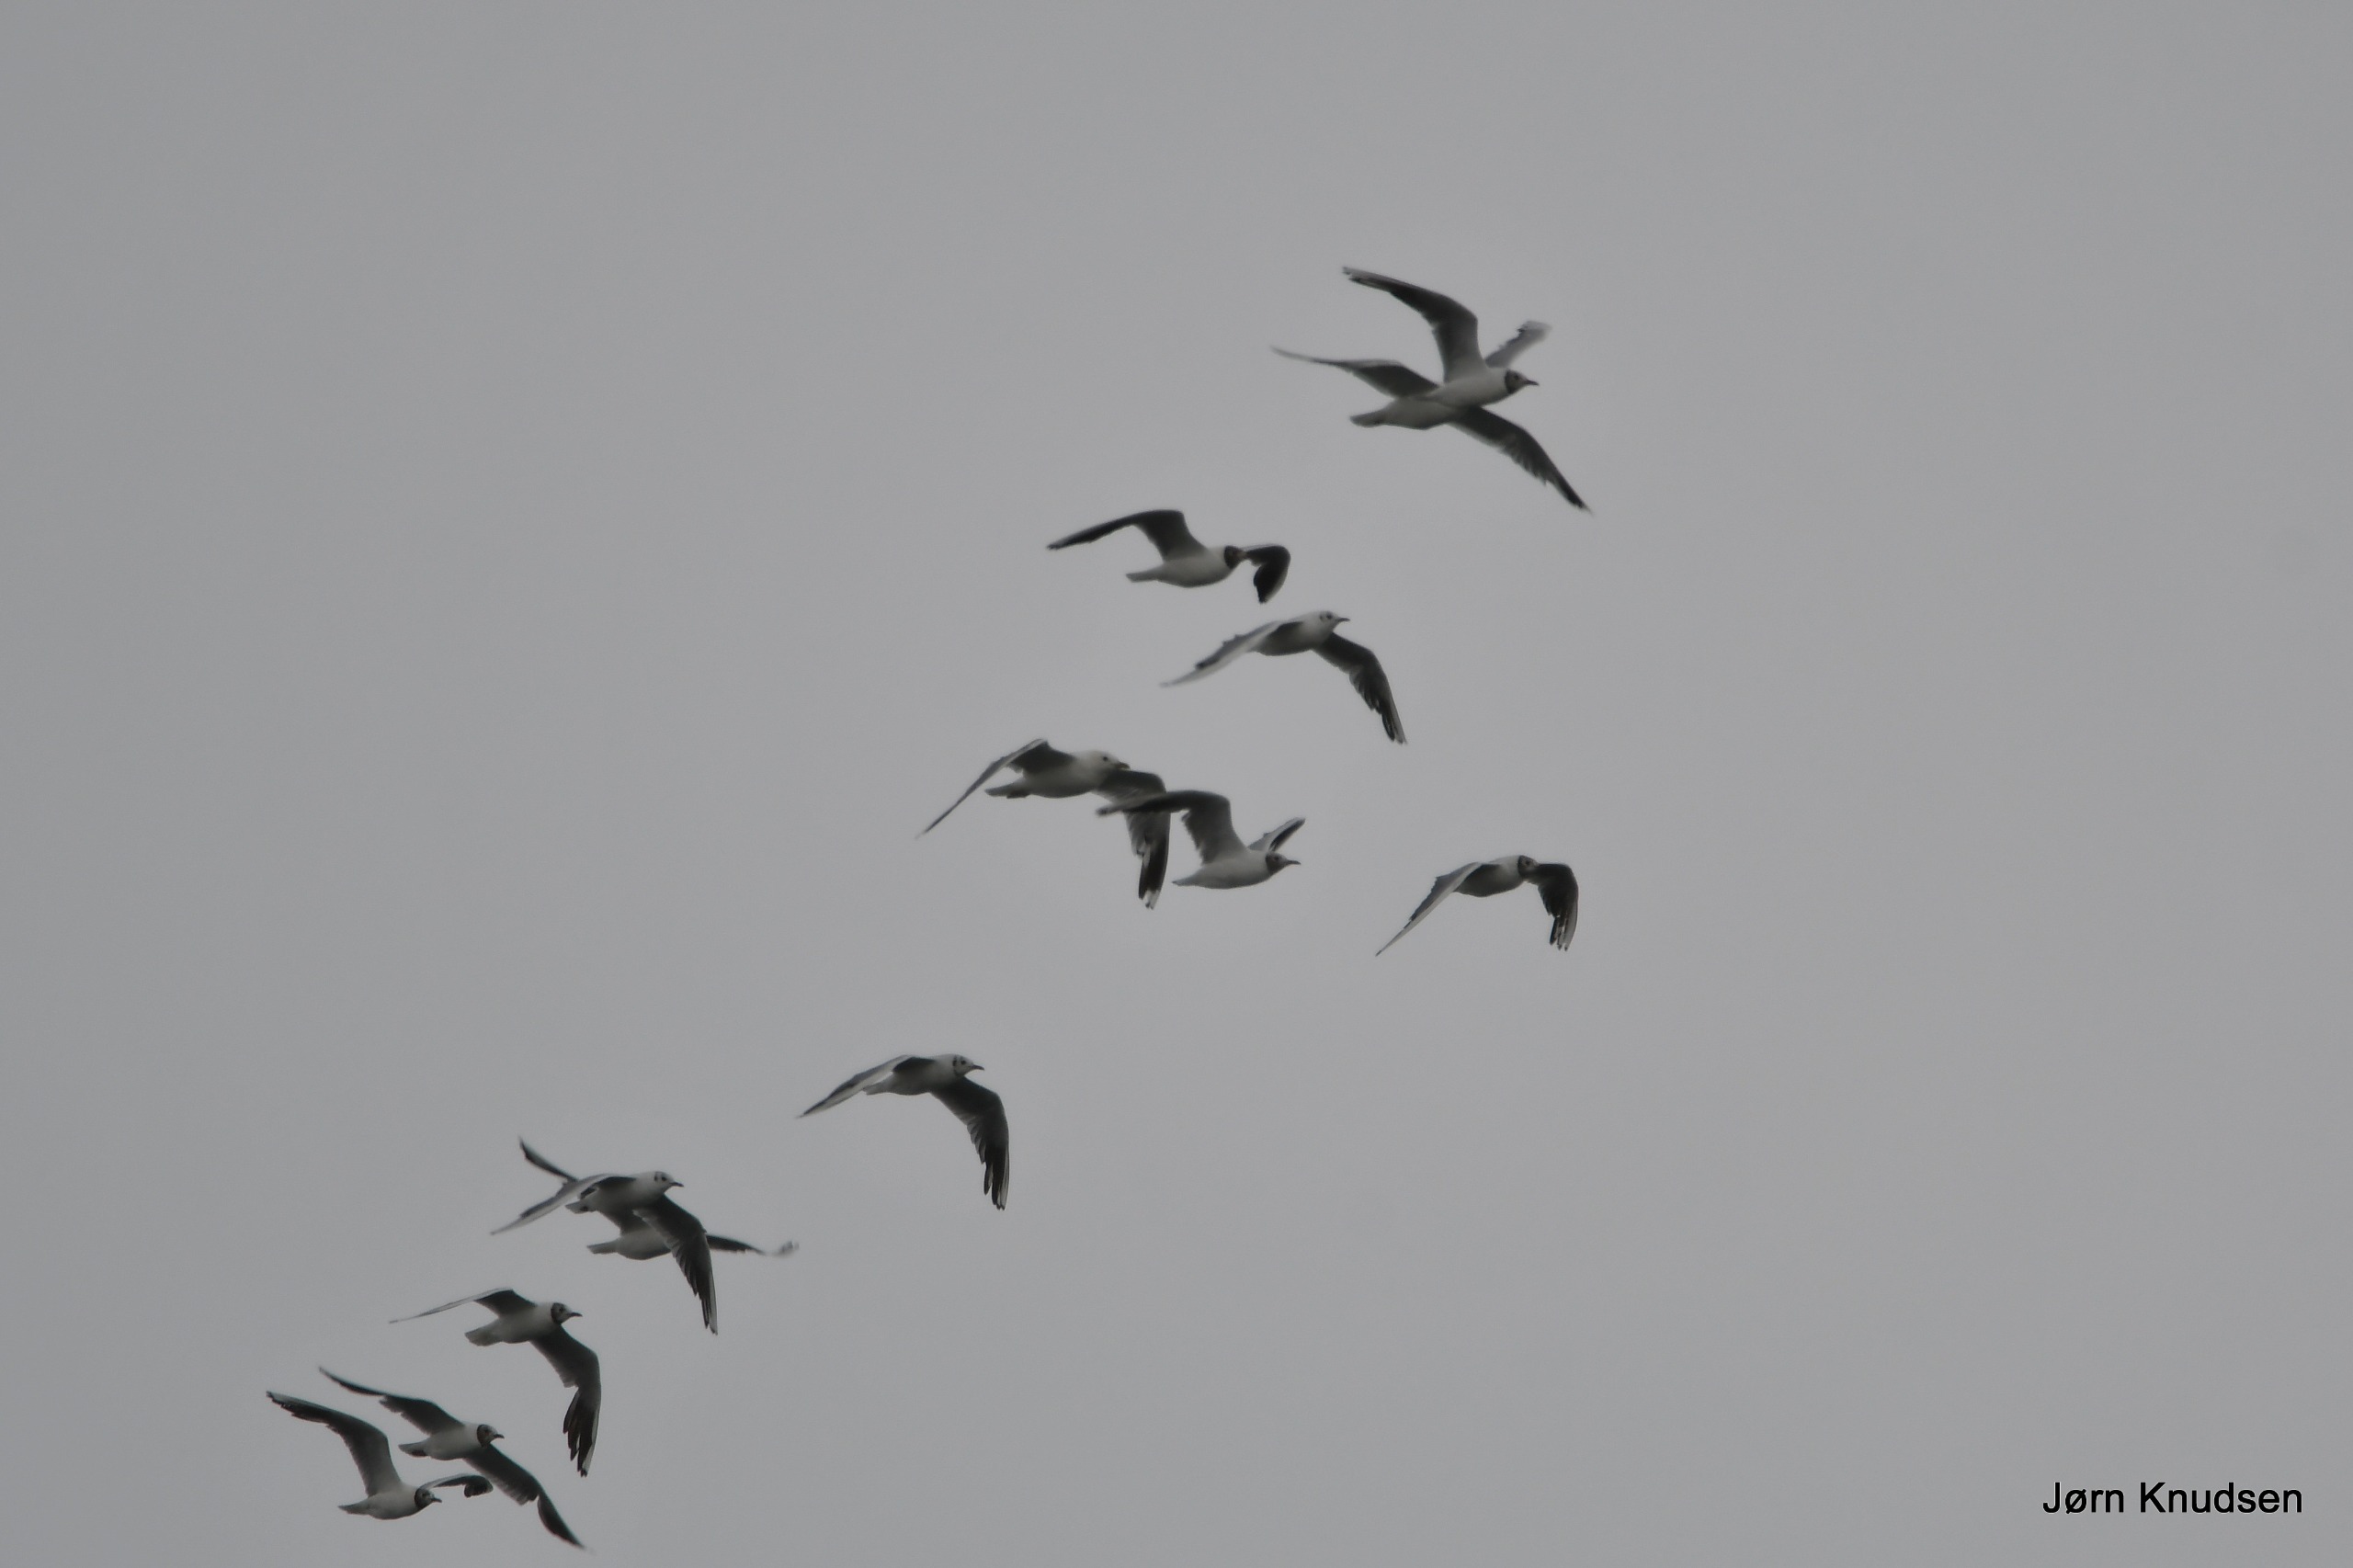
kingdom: Animalia
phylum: Chordata
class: Aves
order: Charadriiformes
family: Laridae
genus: Chroicocephalus
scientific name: Chroicocephalus ridibundus
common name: Hættemåge
